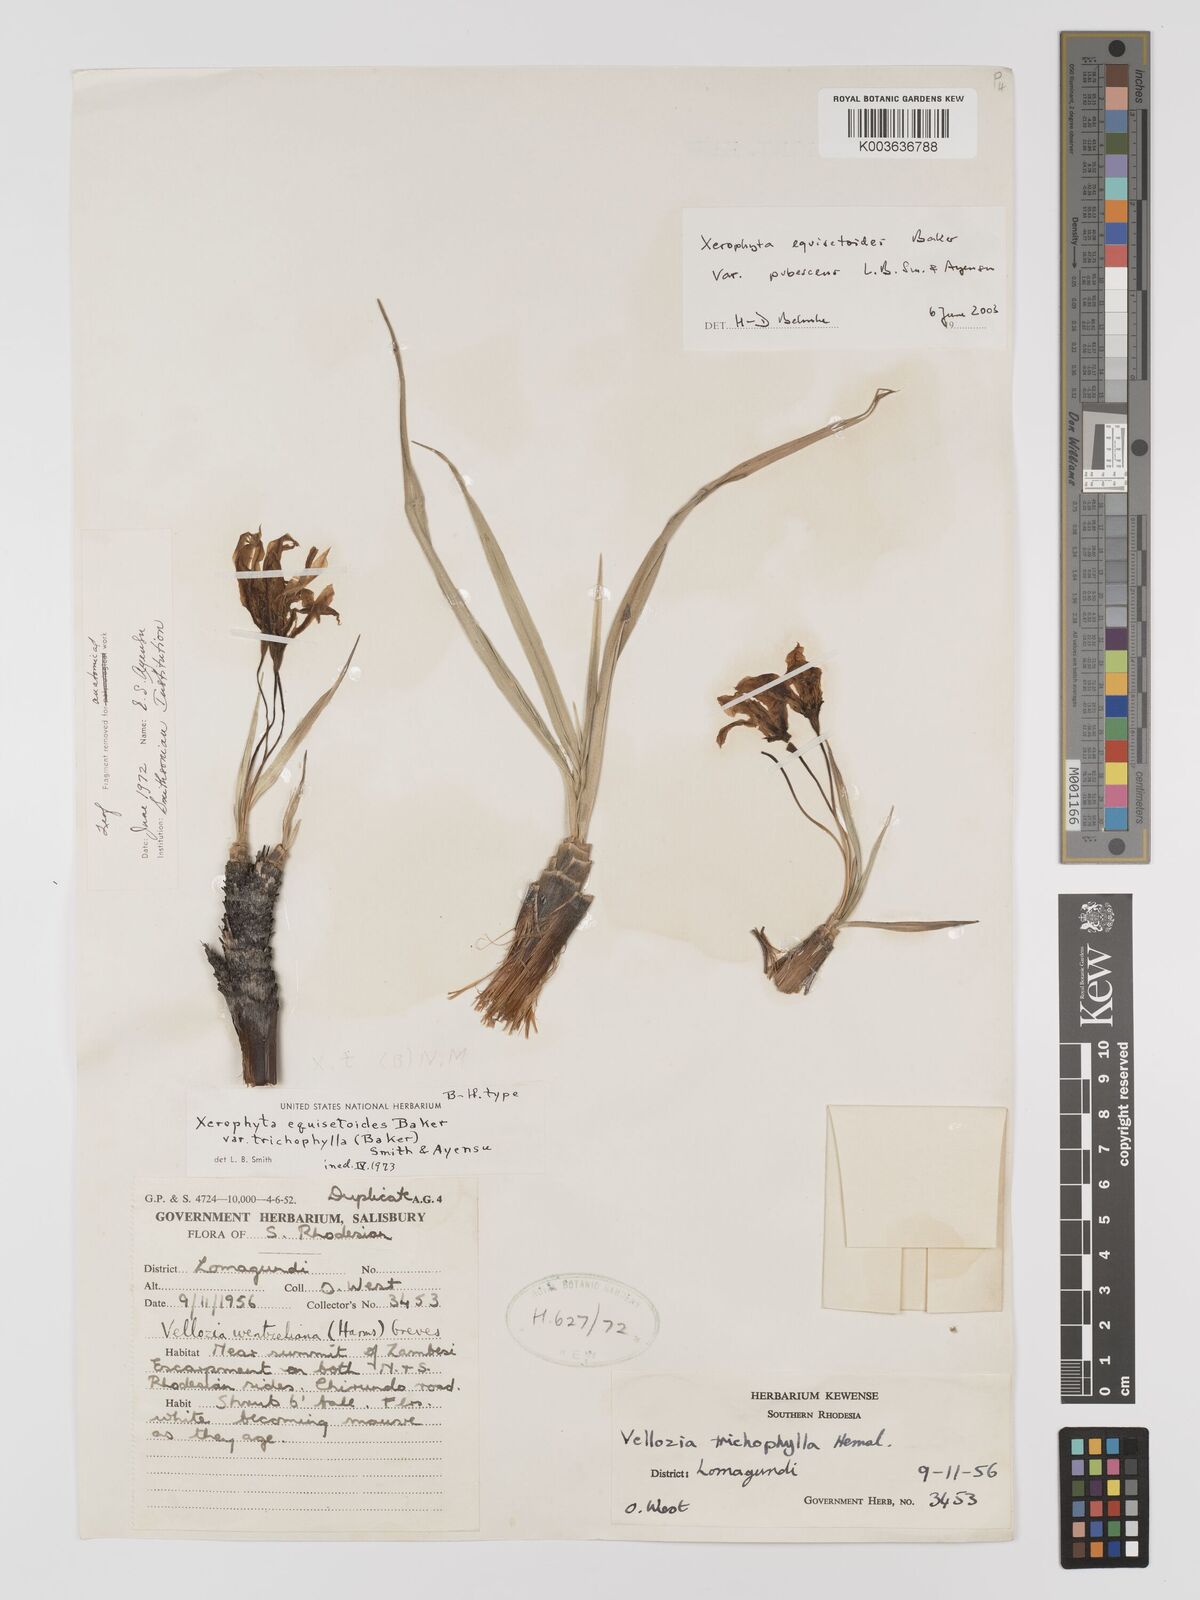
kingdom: Plantae
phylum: Tracheophyta
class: Liliopsida
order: Pandanales
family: Velloziaceae
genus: Xerophyta
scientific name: Xerophyta wentzeliana
